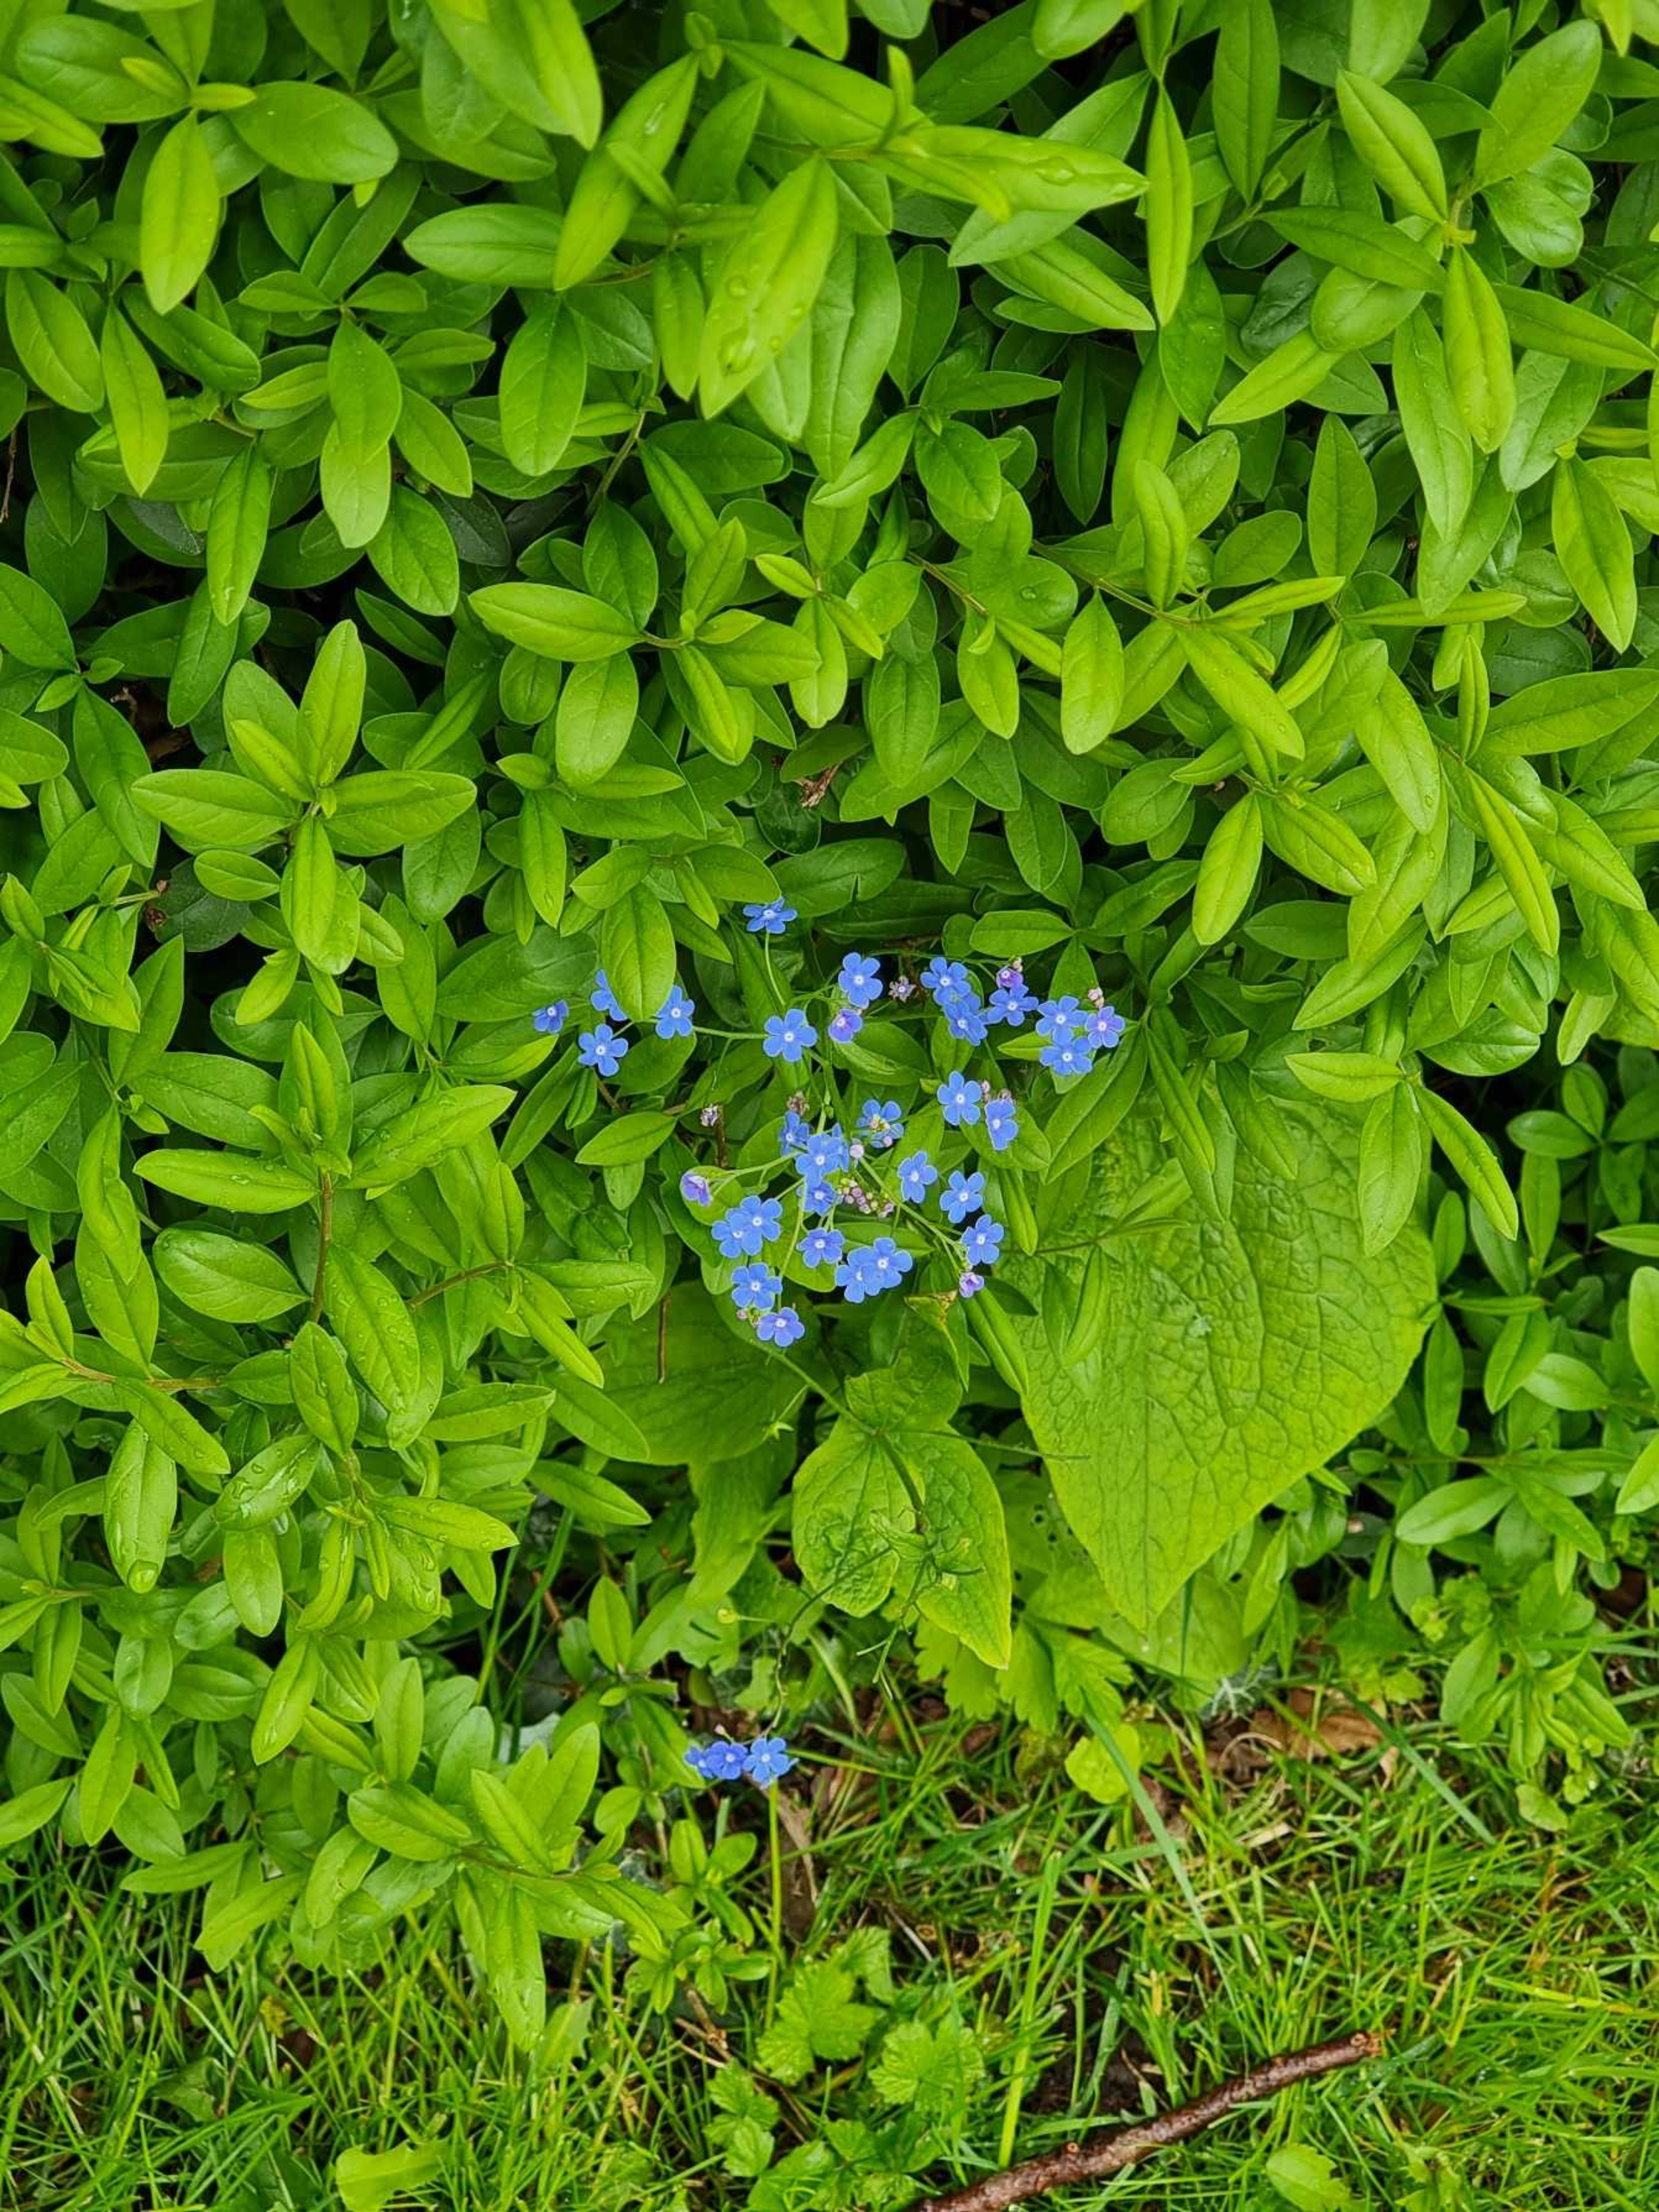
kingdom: Plantae
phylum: Tracheophyta
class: Magnoliopsida
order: Boraginales
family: Boraginaceae
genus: Brunnera
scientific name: Brunnera macrophylla
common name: Kærmindesøster
